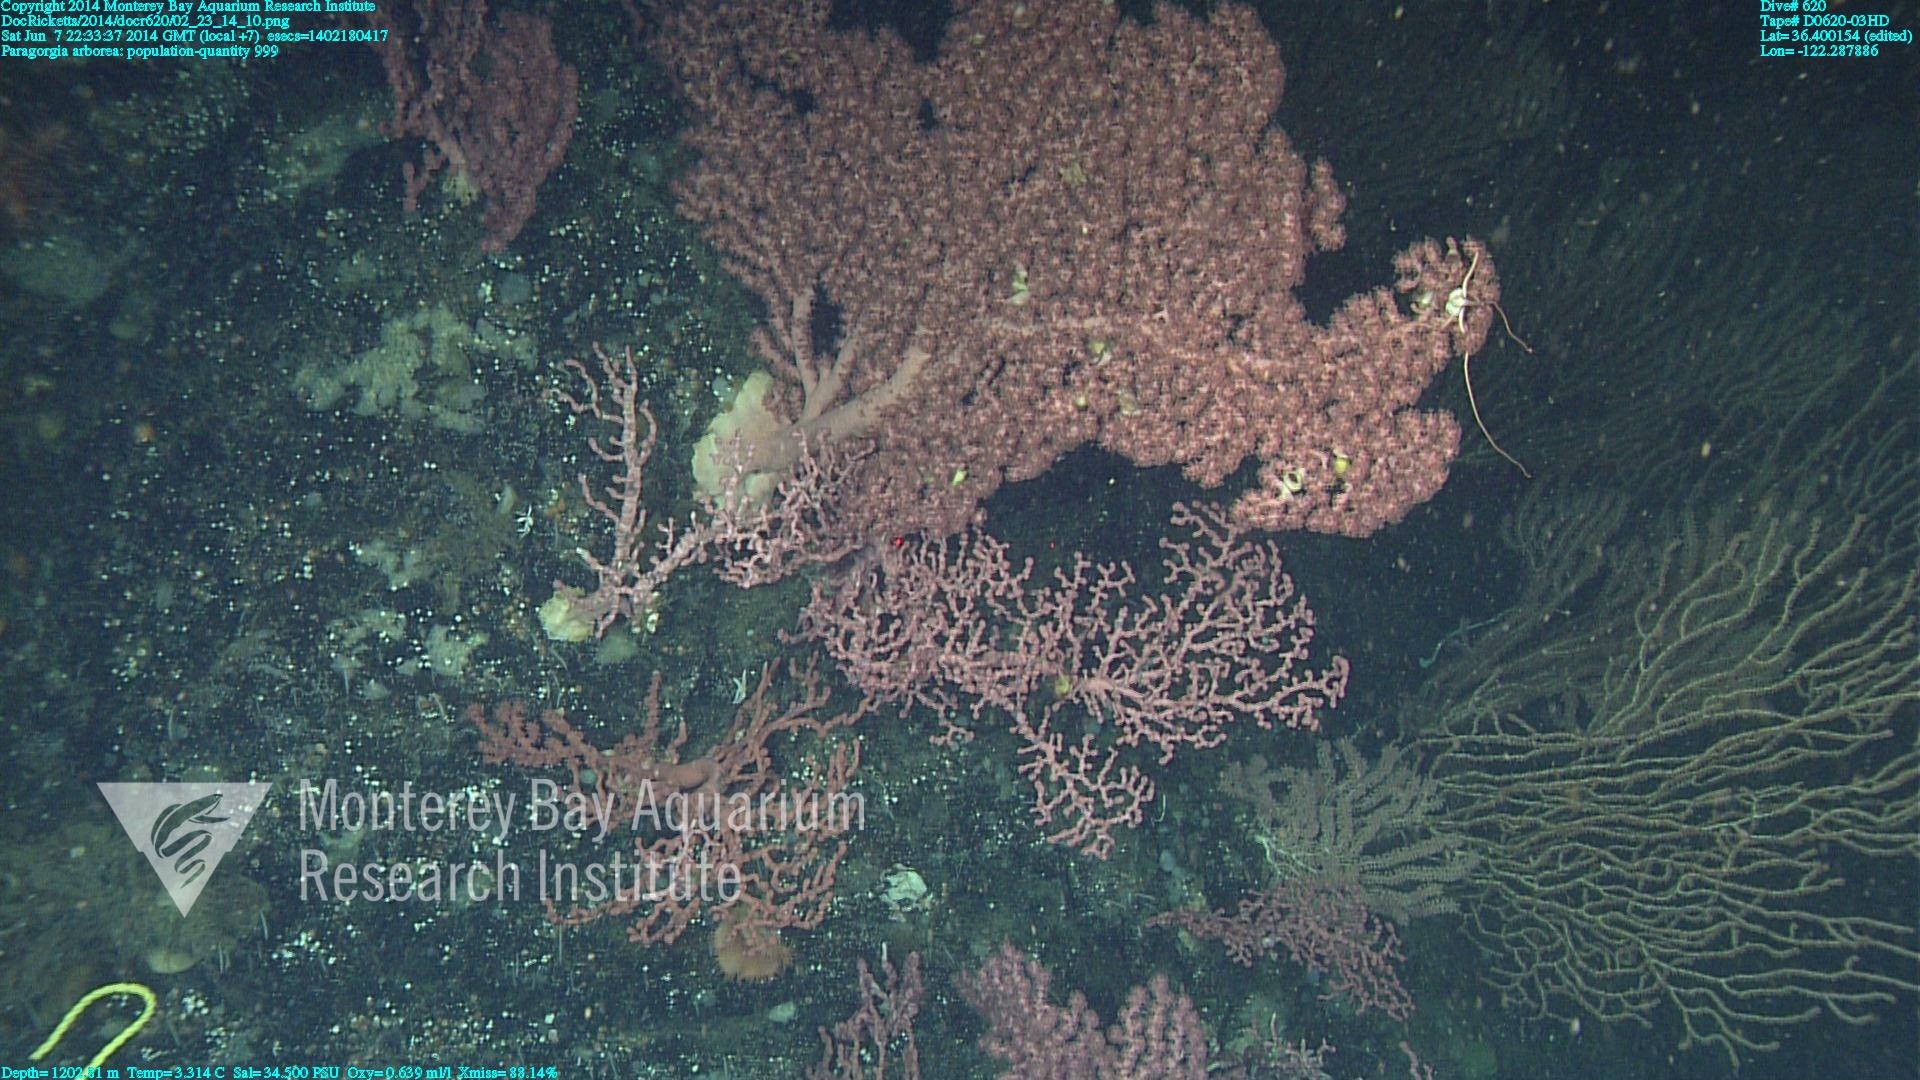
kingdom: Animalia
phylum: Cnidaria
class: Anthozoa
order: Scleralcyonacea
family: Coralliidae
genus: Paragorgia
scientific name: Paragorgia arborea
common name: Bubble gum coral
